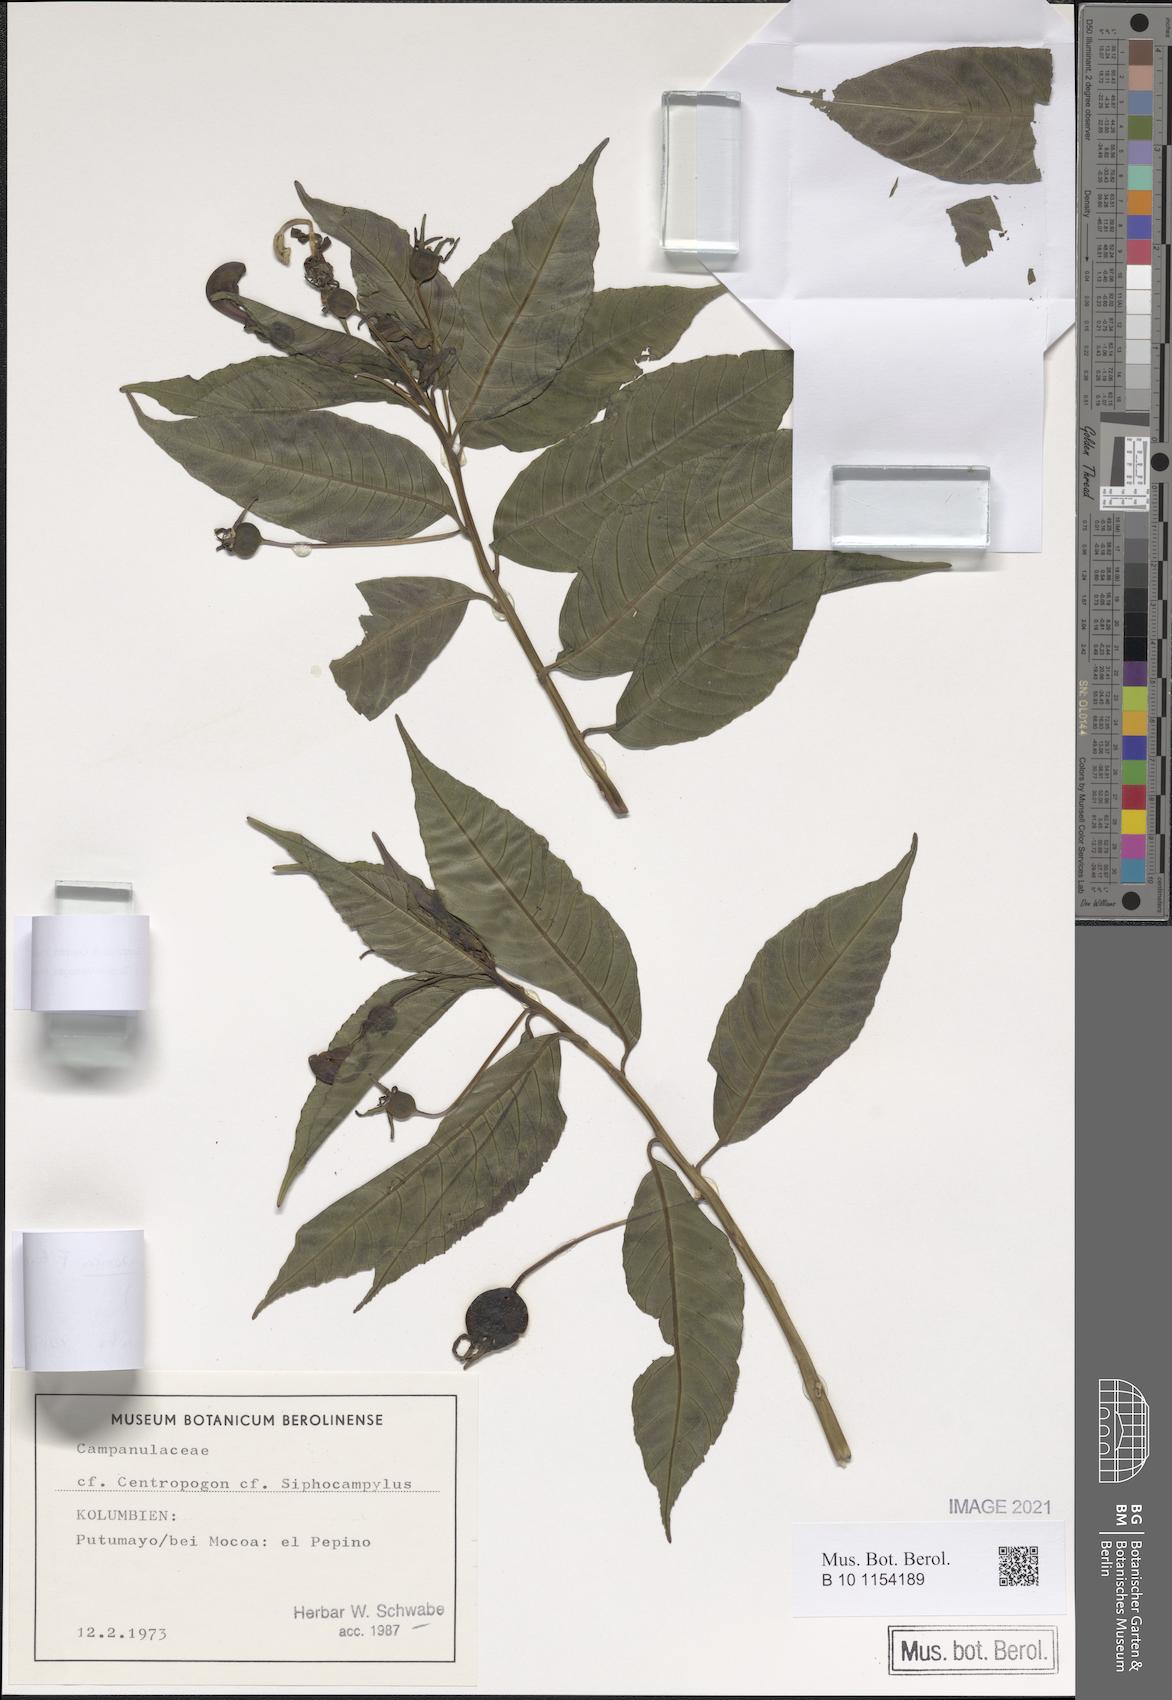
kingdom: Plantae
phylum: Tracheophyta
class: Magnoliopsida
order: Asterales
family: Campanulaceae
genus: Burmeistera
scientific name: Burmeistera andakiana
